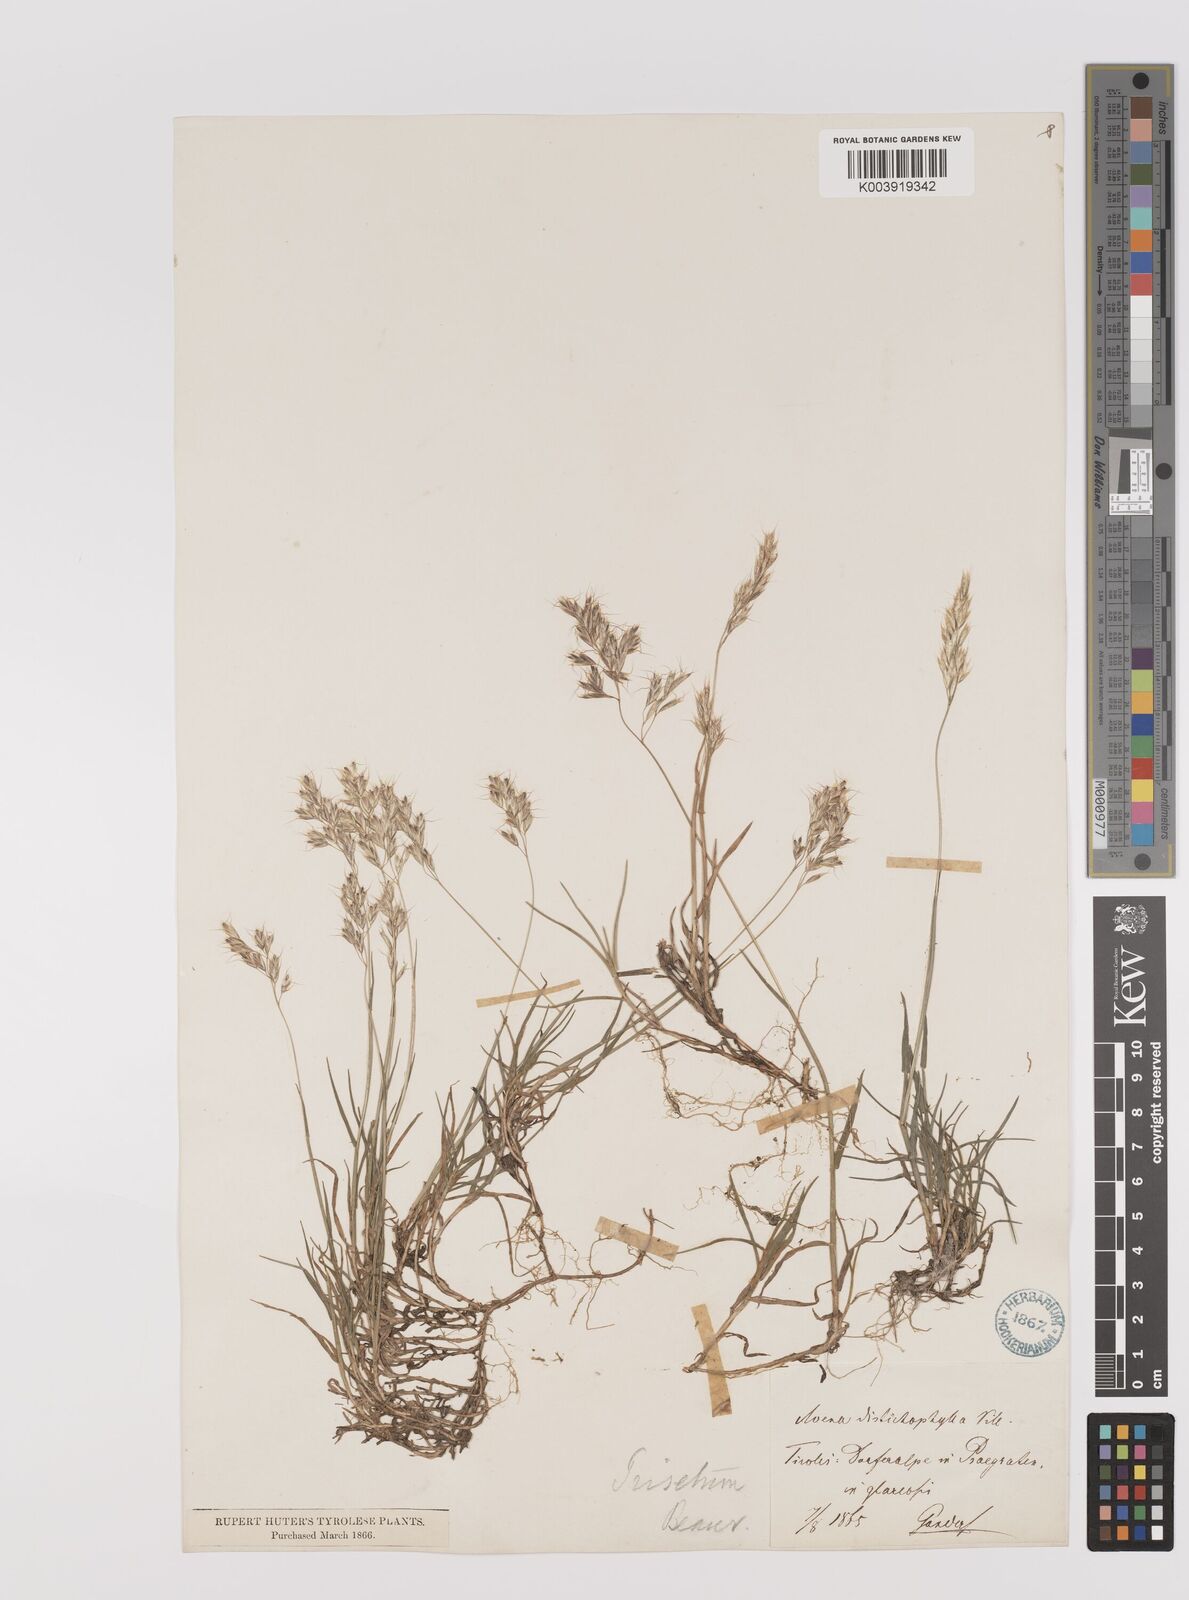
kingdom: Plantae
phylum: Tracheophyta
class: Liliopsida
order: Poales
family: Poaceae
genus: Acrospelion
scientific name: Acrospelion distichophyllum
